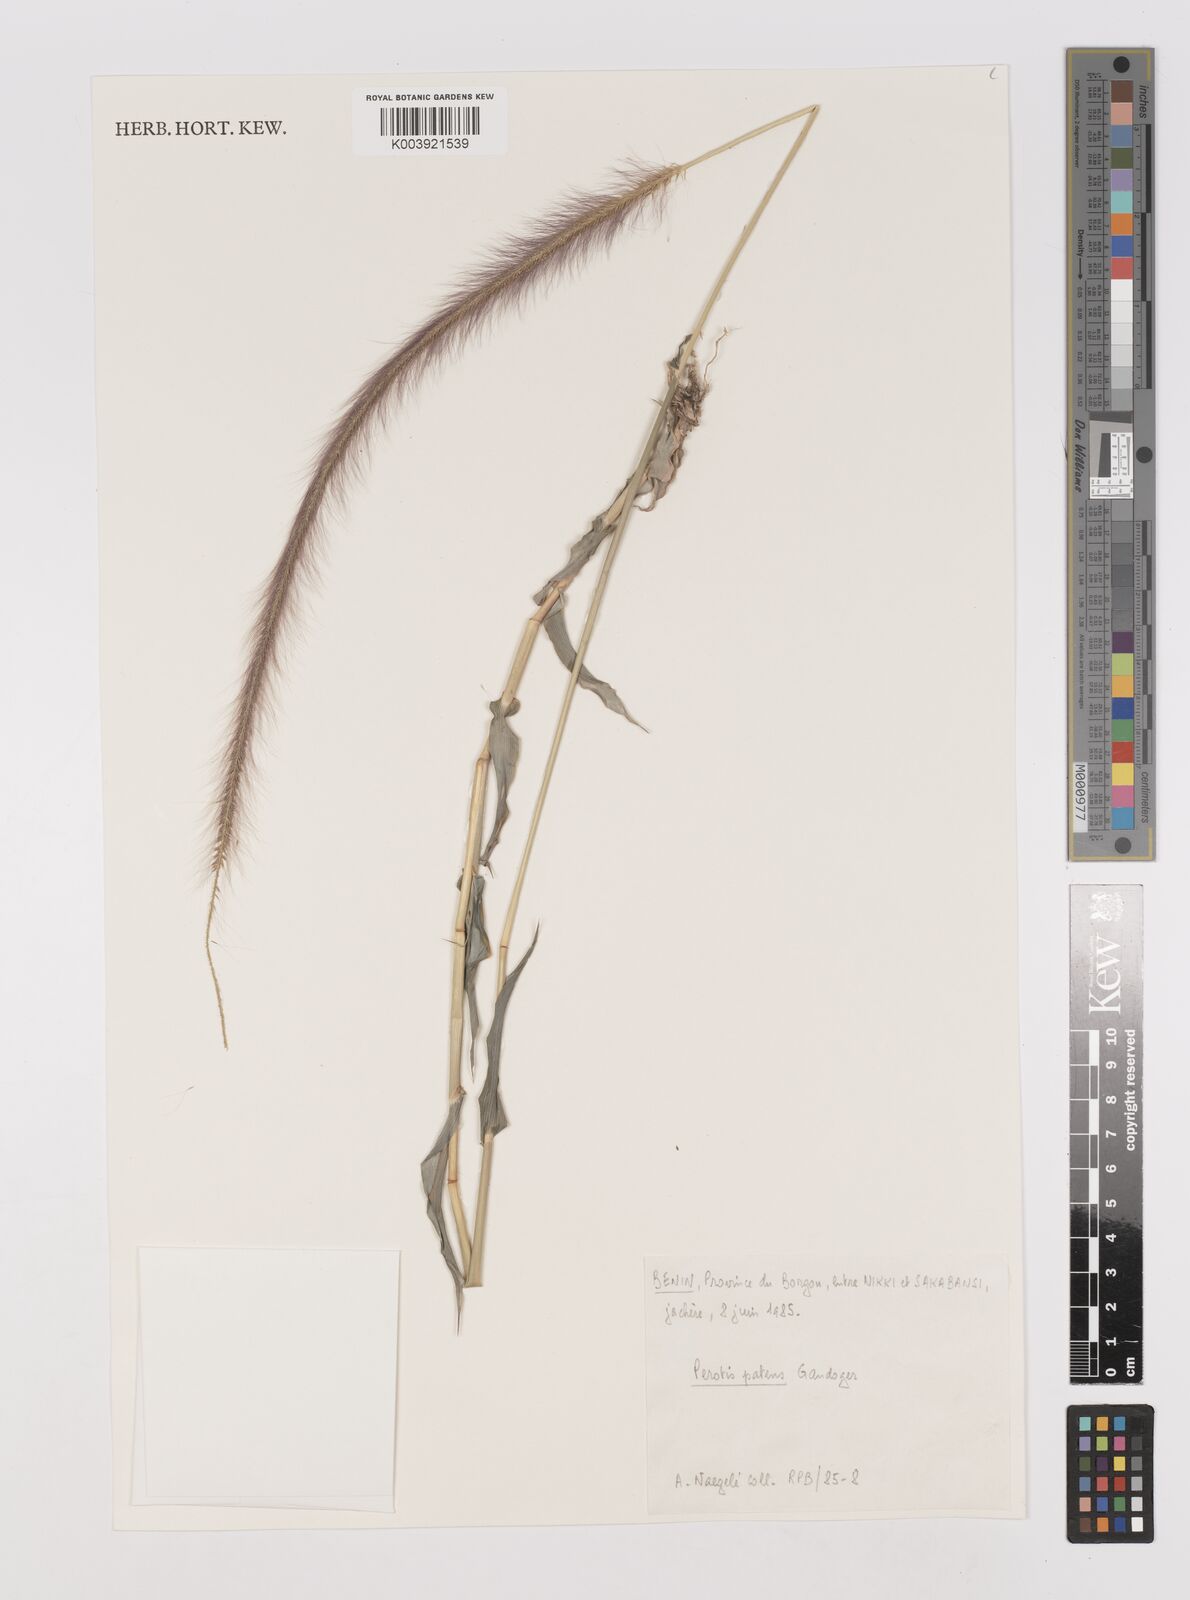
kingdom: Plantae
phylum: Tracheophyta
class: Liliopsida
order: Poales
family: Poaceae
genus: Perotis
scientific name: Perotis patens
